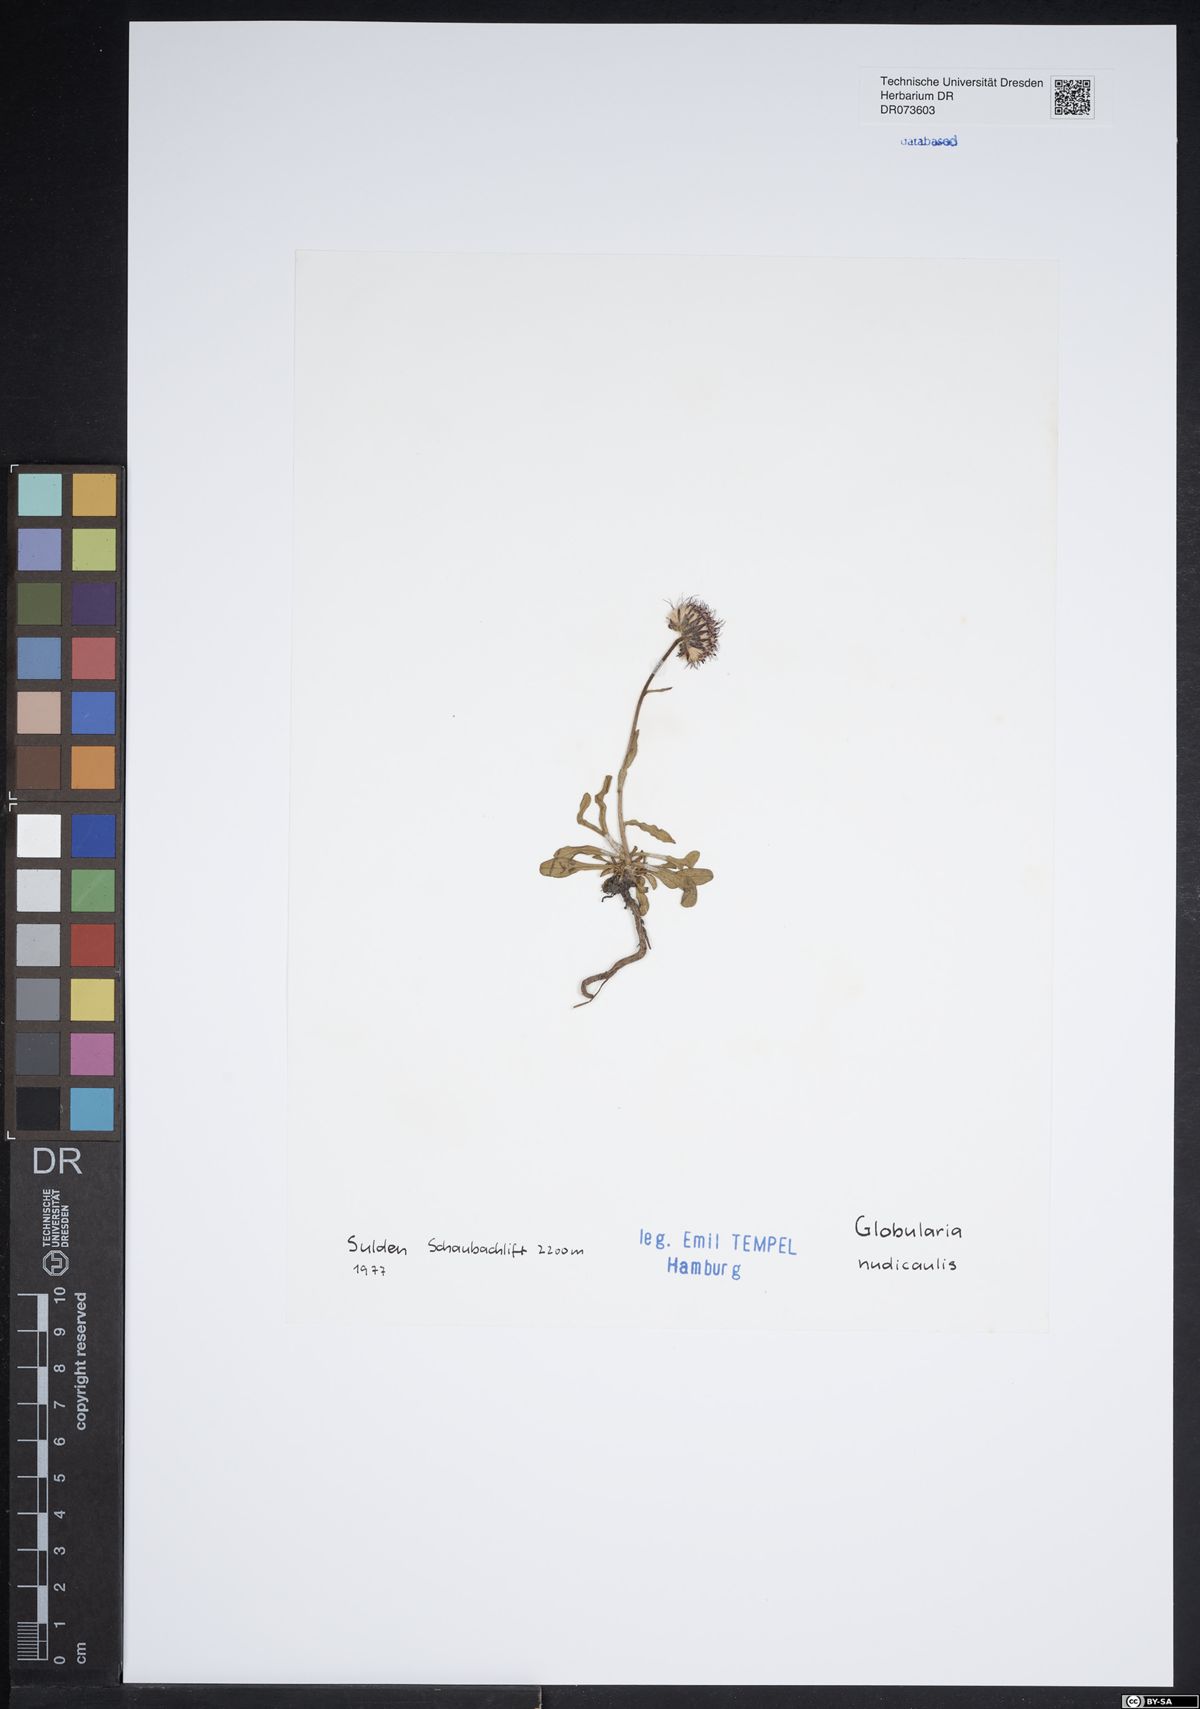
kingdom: Plantae
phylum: Tracheophyta
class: Magnoliopsida
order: Lamiales
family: Plantaginaceae
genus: Globularia
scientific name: Globularia nudicaulis
